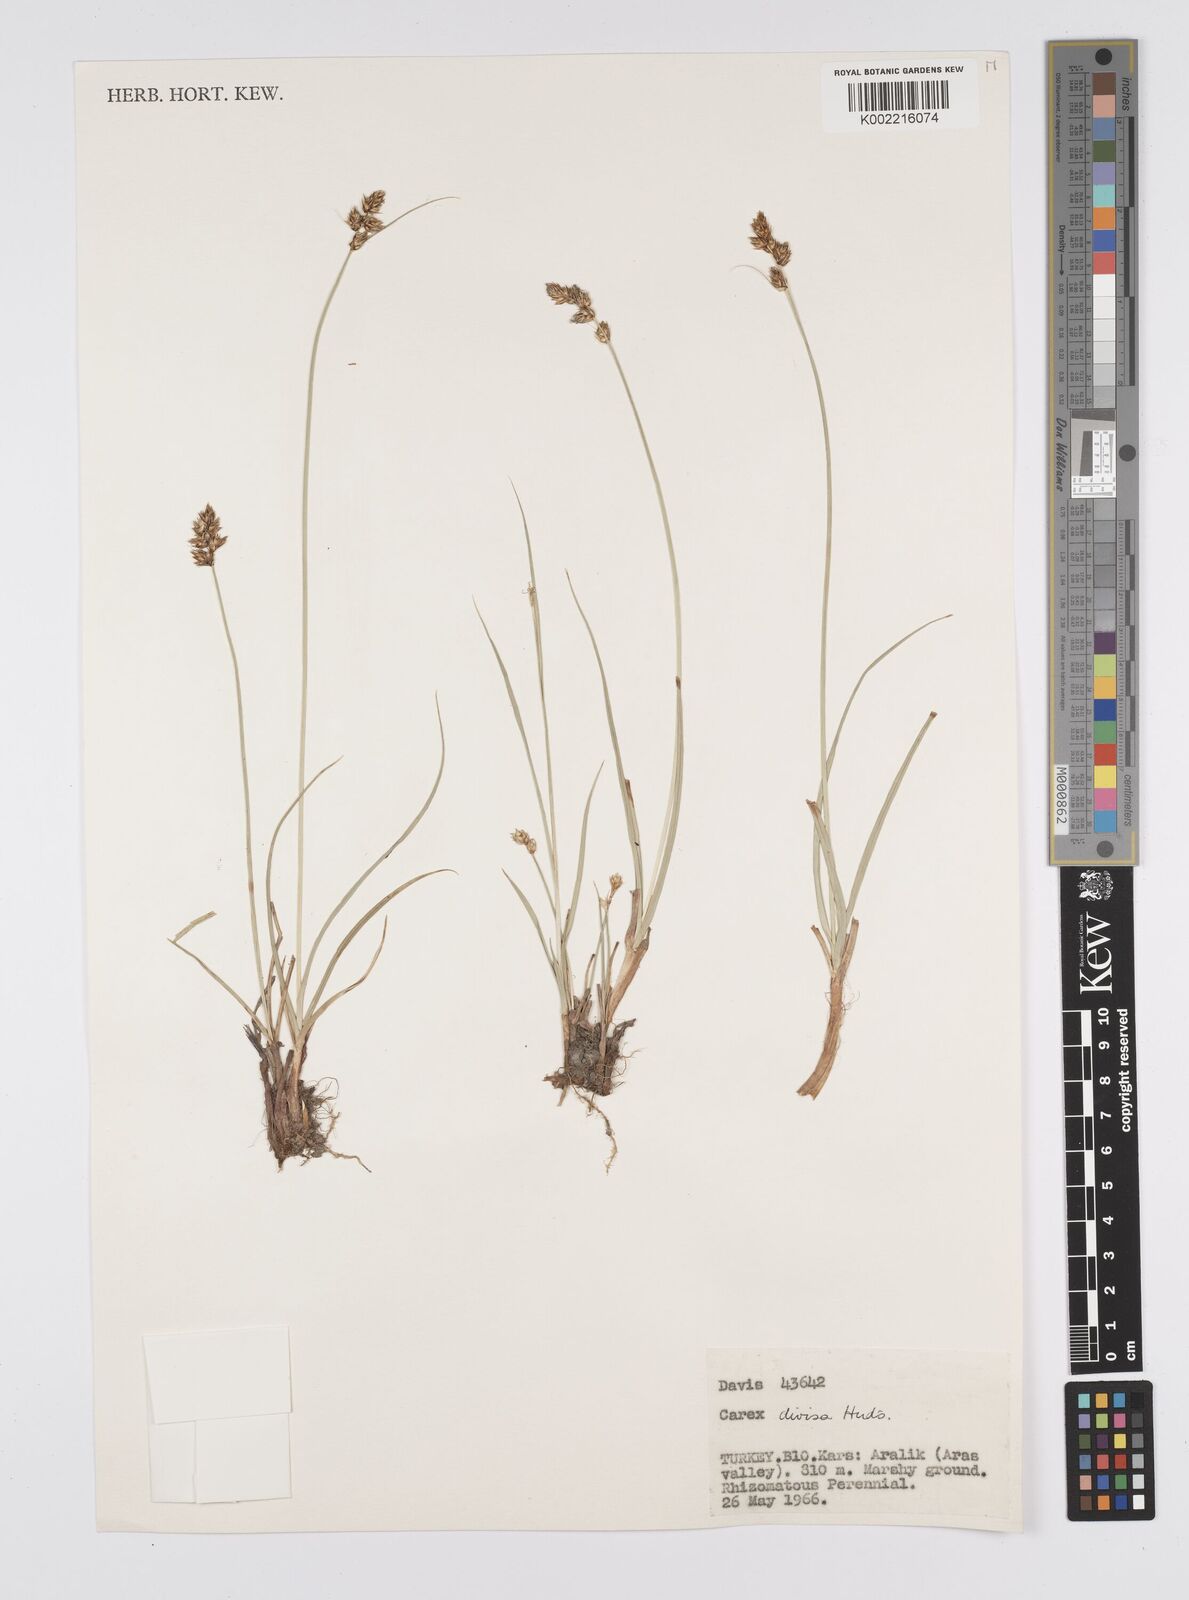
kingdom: Plantae
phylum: Tracheophyta
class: Liliopsida
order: Poales
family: Cyperaceae
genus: Carex
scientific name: Carex divisa
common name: Divided sedge
